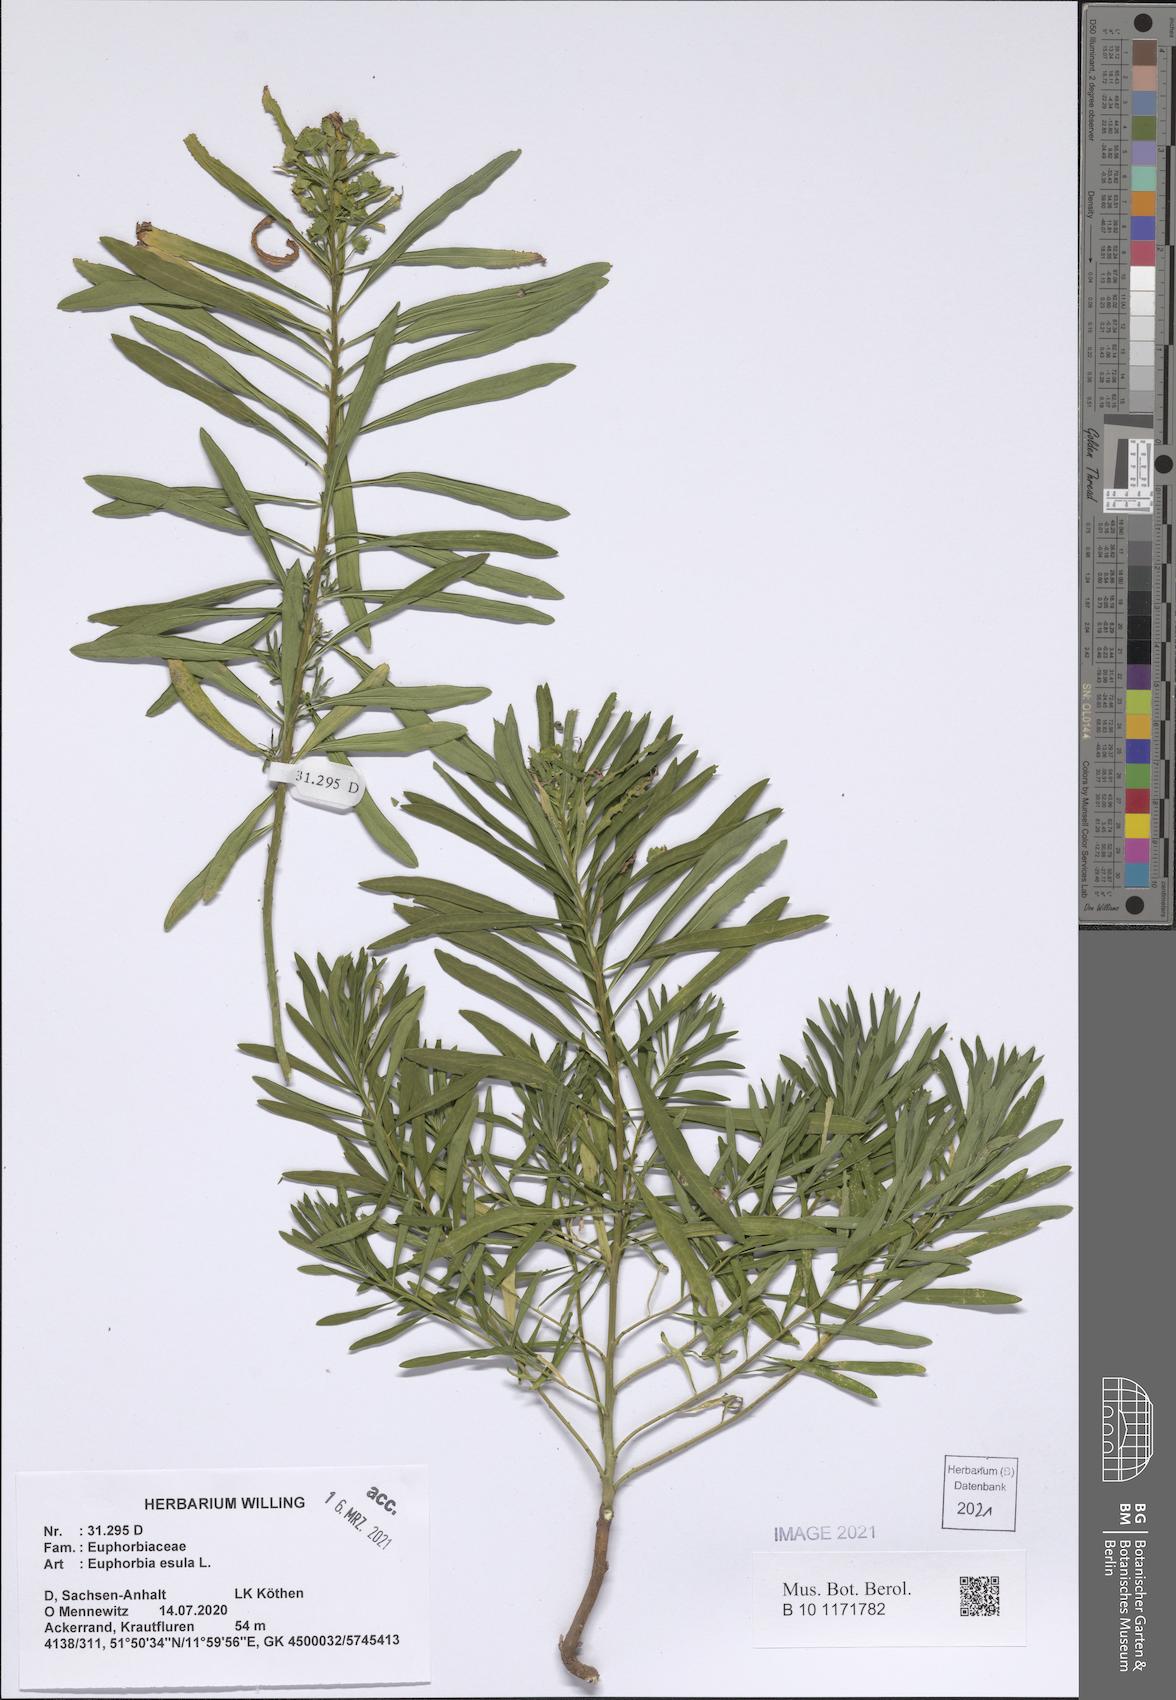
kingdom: Plantae
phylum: Tracheophyta
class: Magnoliopsida
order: Malpighiales
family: Euphorbiaceae
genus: Euphorbia
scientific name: Euphorbia esula
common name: Leafy spurge
